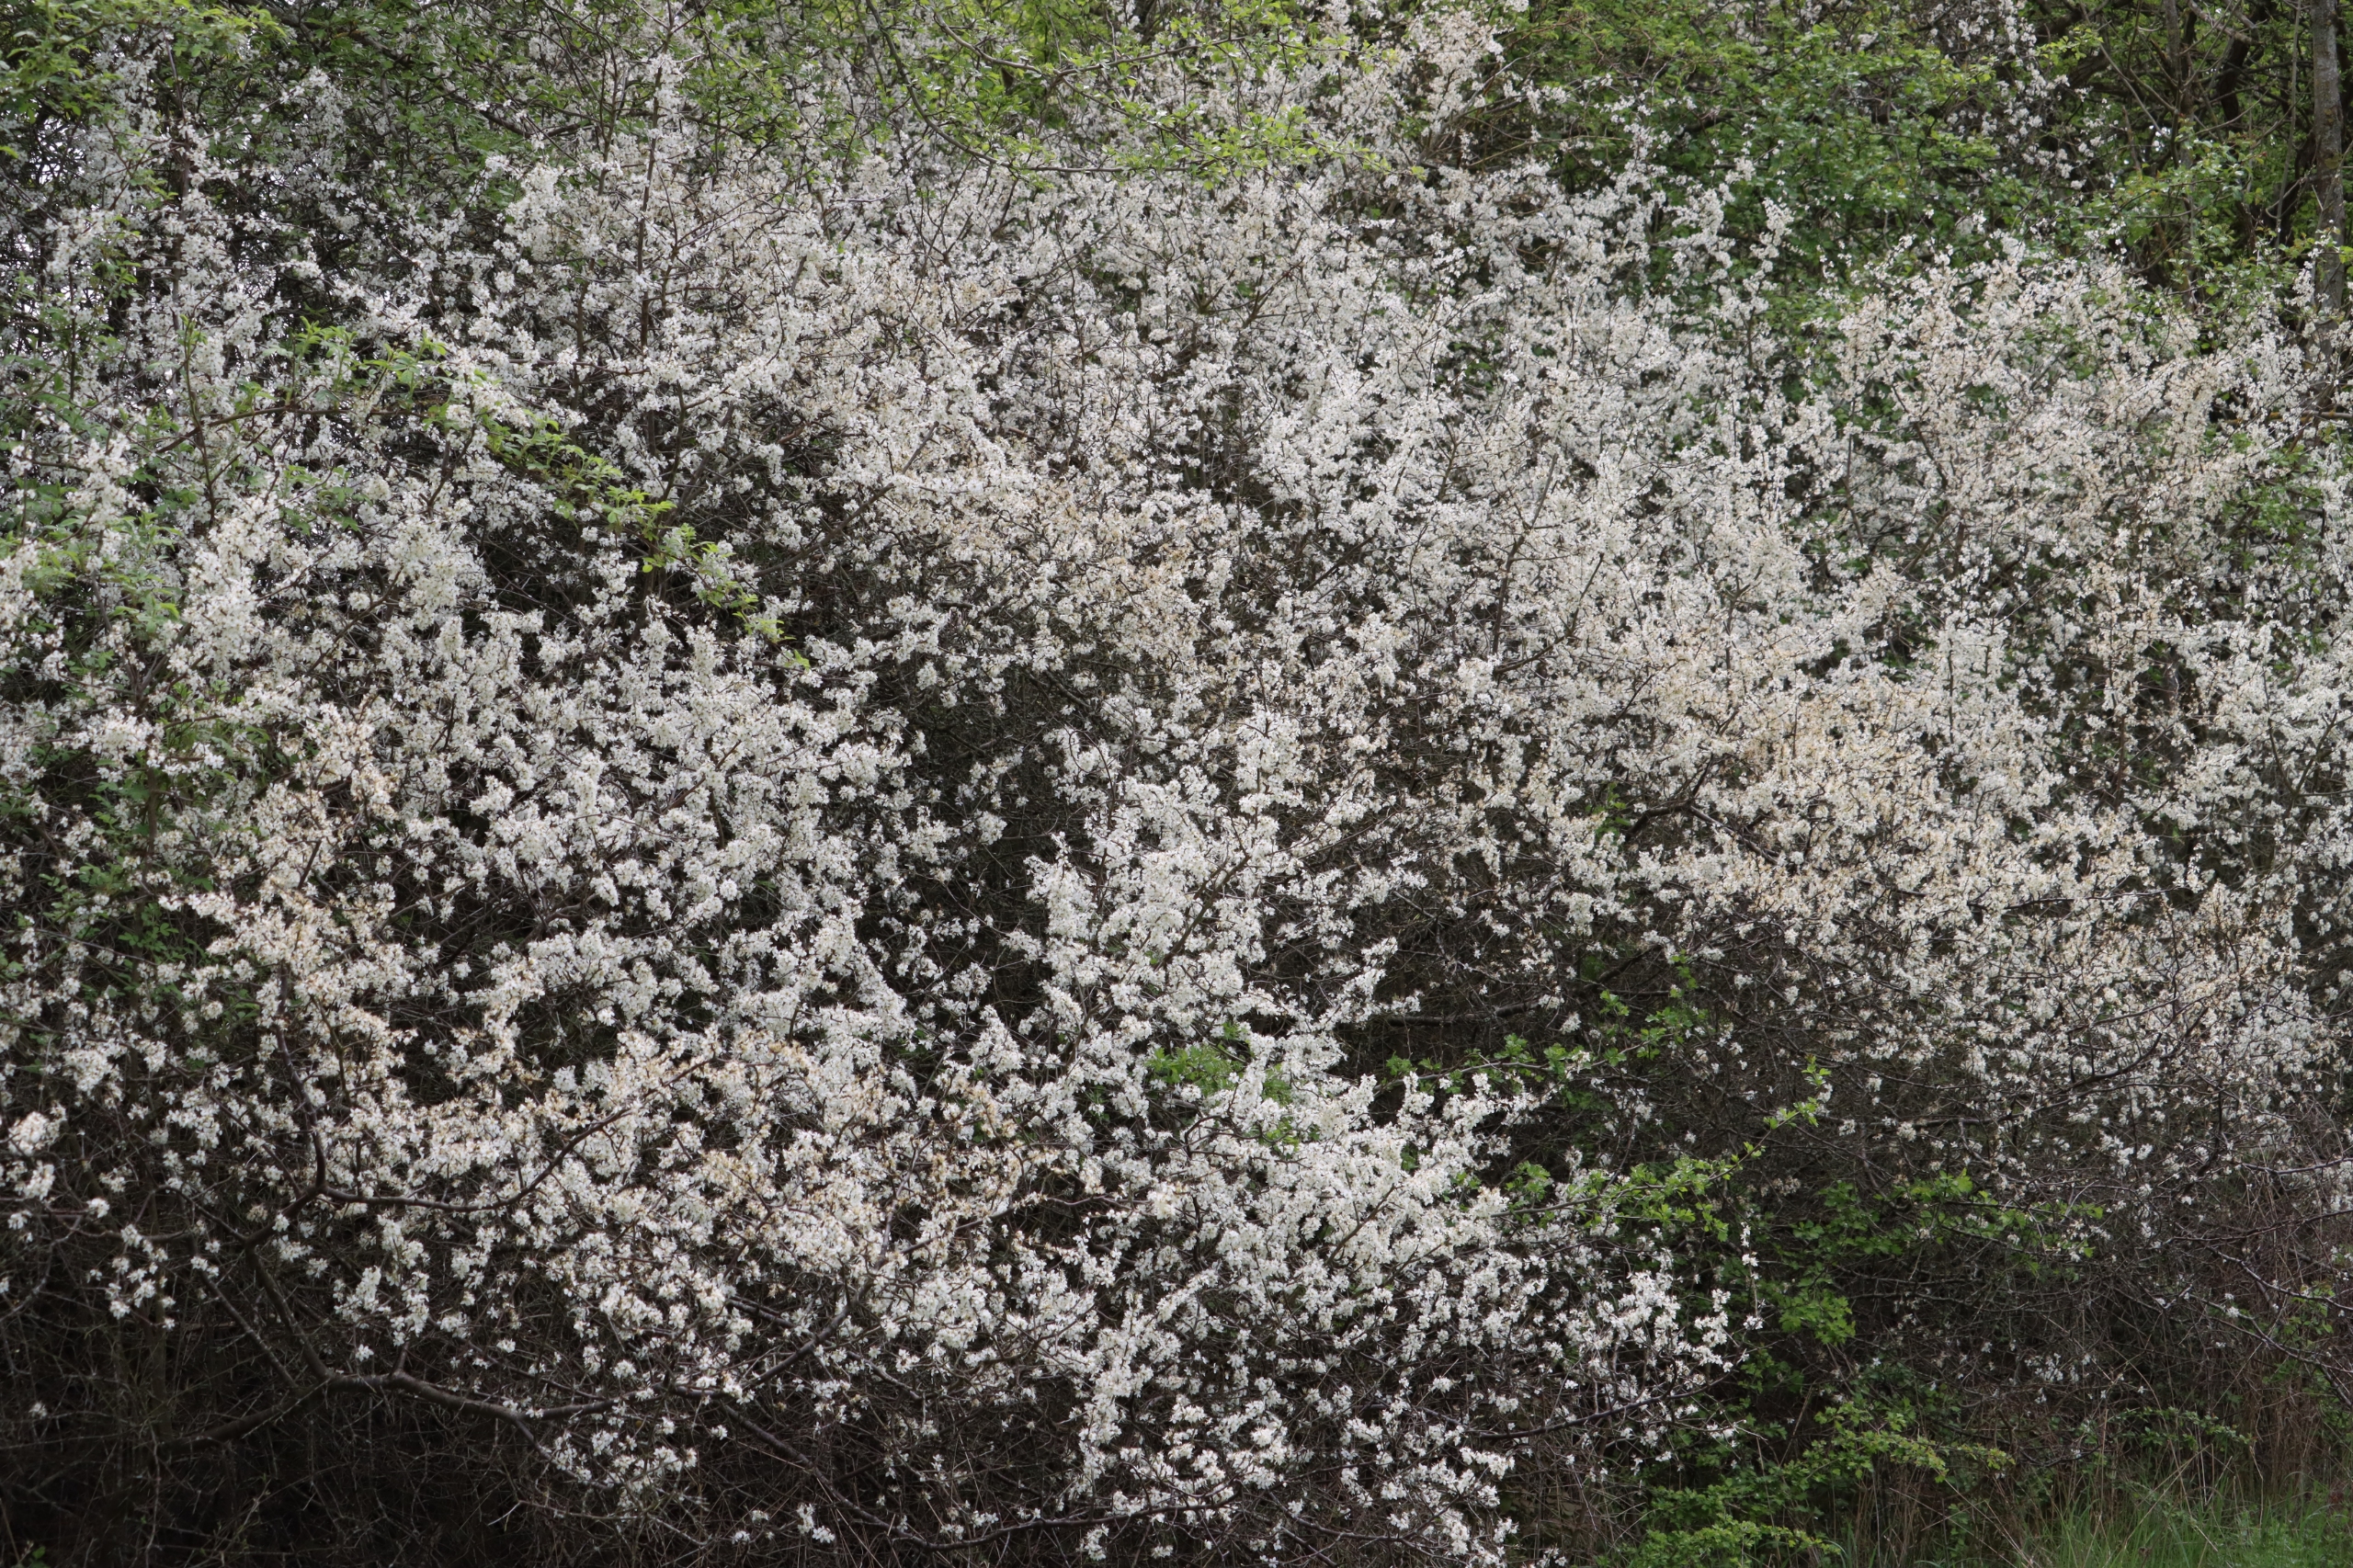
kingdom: Plantae
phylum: Tracheophyta
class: Magnoliopsida
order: Rosales
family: Rosaceae
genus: Prunus
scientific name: Prunus spinosa
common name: Slåen
